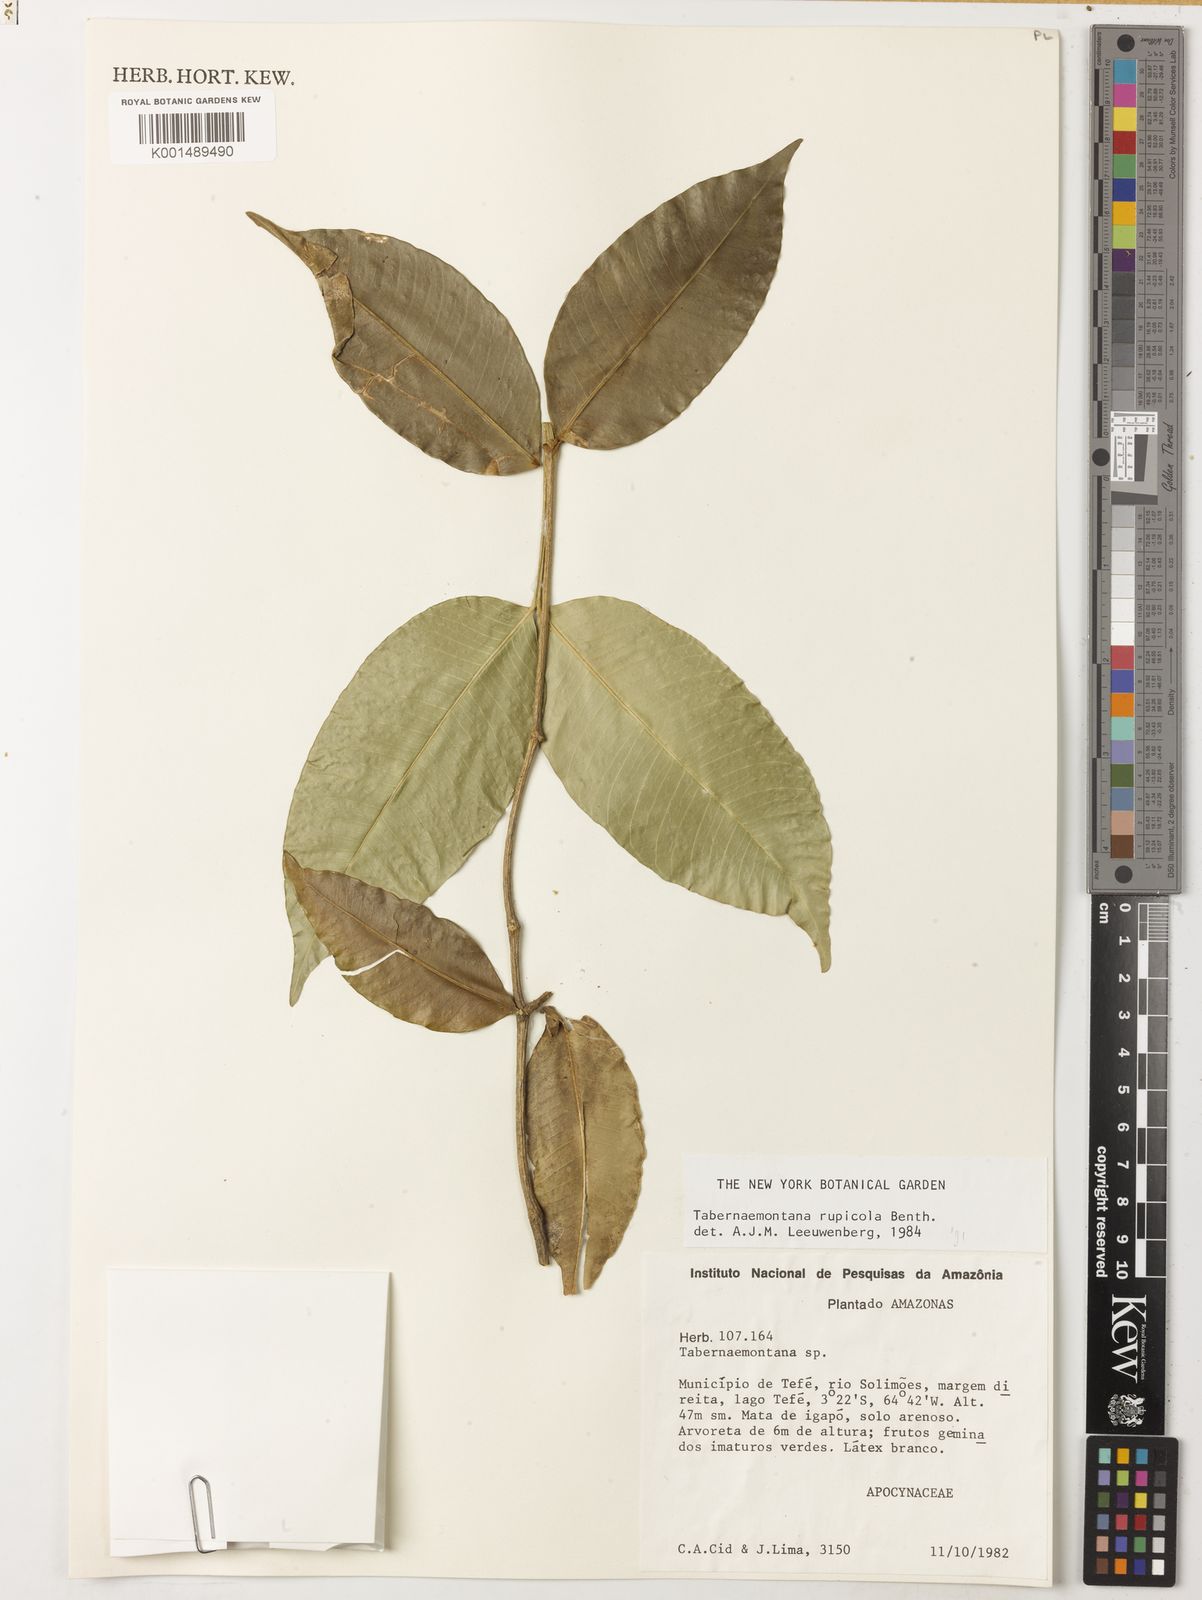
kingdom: Plantae
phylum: Tracheophyta
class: Magnoliopsida
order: Gentianales
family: Apocynaceae
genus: Tabernaemontana
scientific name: Tabernaemontana rupicola
